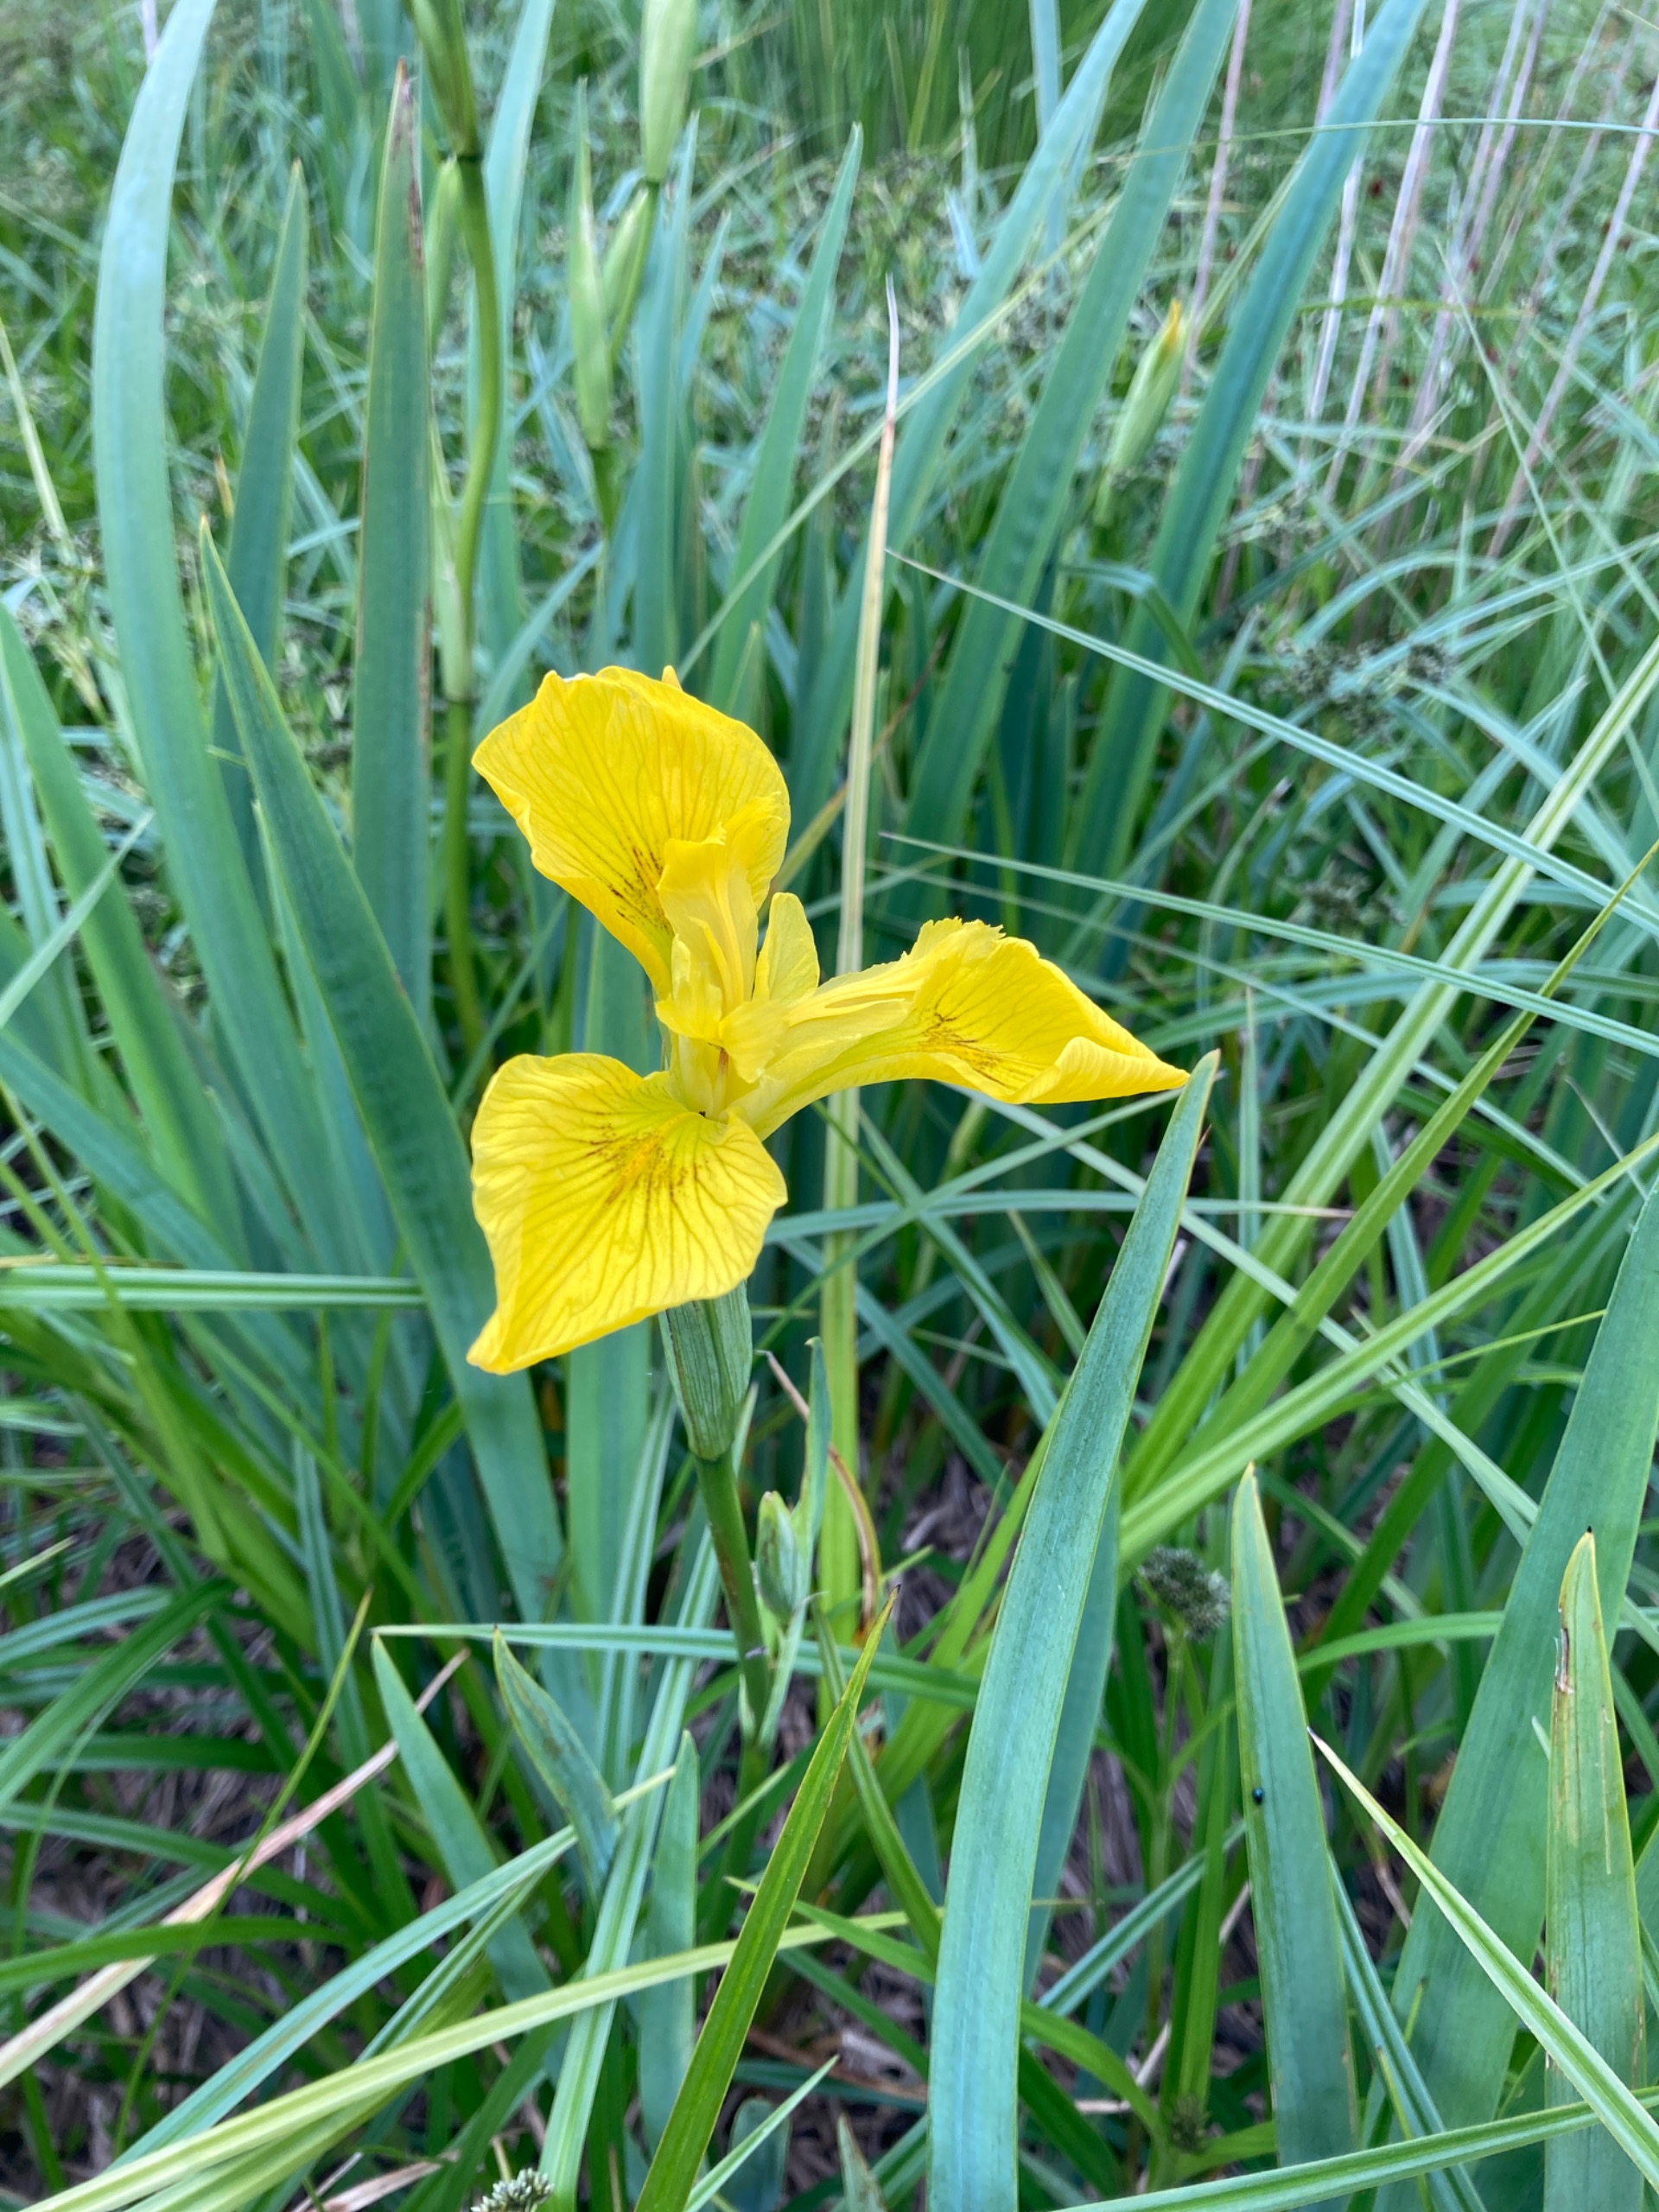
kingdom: Plantae
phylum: Tracheophyta
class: Liliopsida
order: Asparagales
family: Iridaceae
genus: Iris
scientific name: Iris pseudacorus
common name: Gul iris
